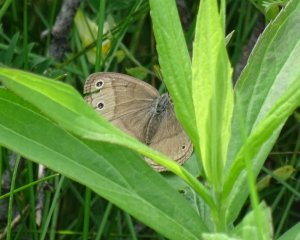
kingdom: Animalia
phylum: Arthropoda
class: Insecta
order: Lepidoptera
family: Nymphalidae
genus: Euptychia
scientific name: Euptychia cymela
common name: Little Wood Satyr
